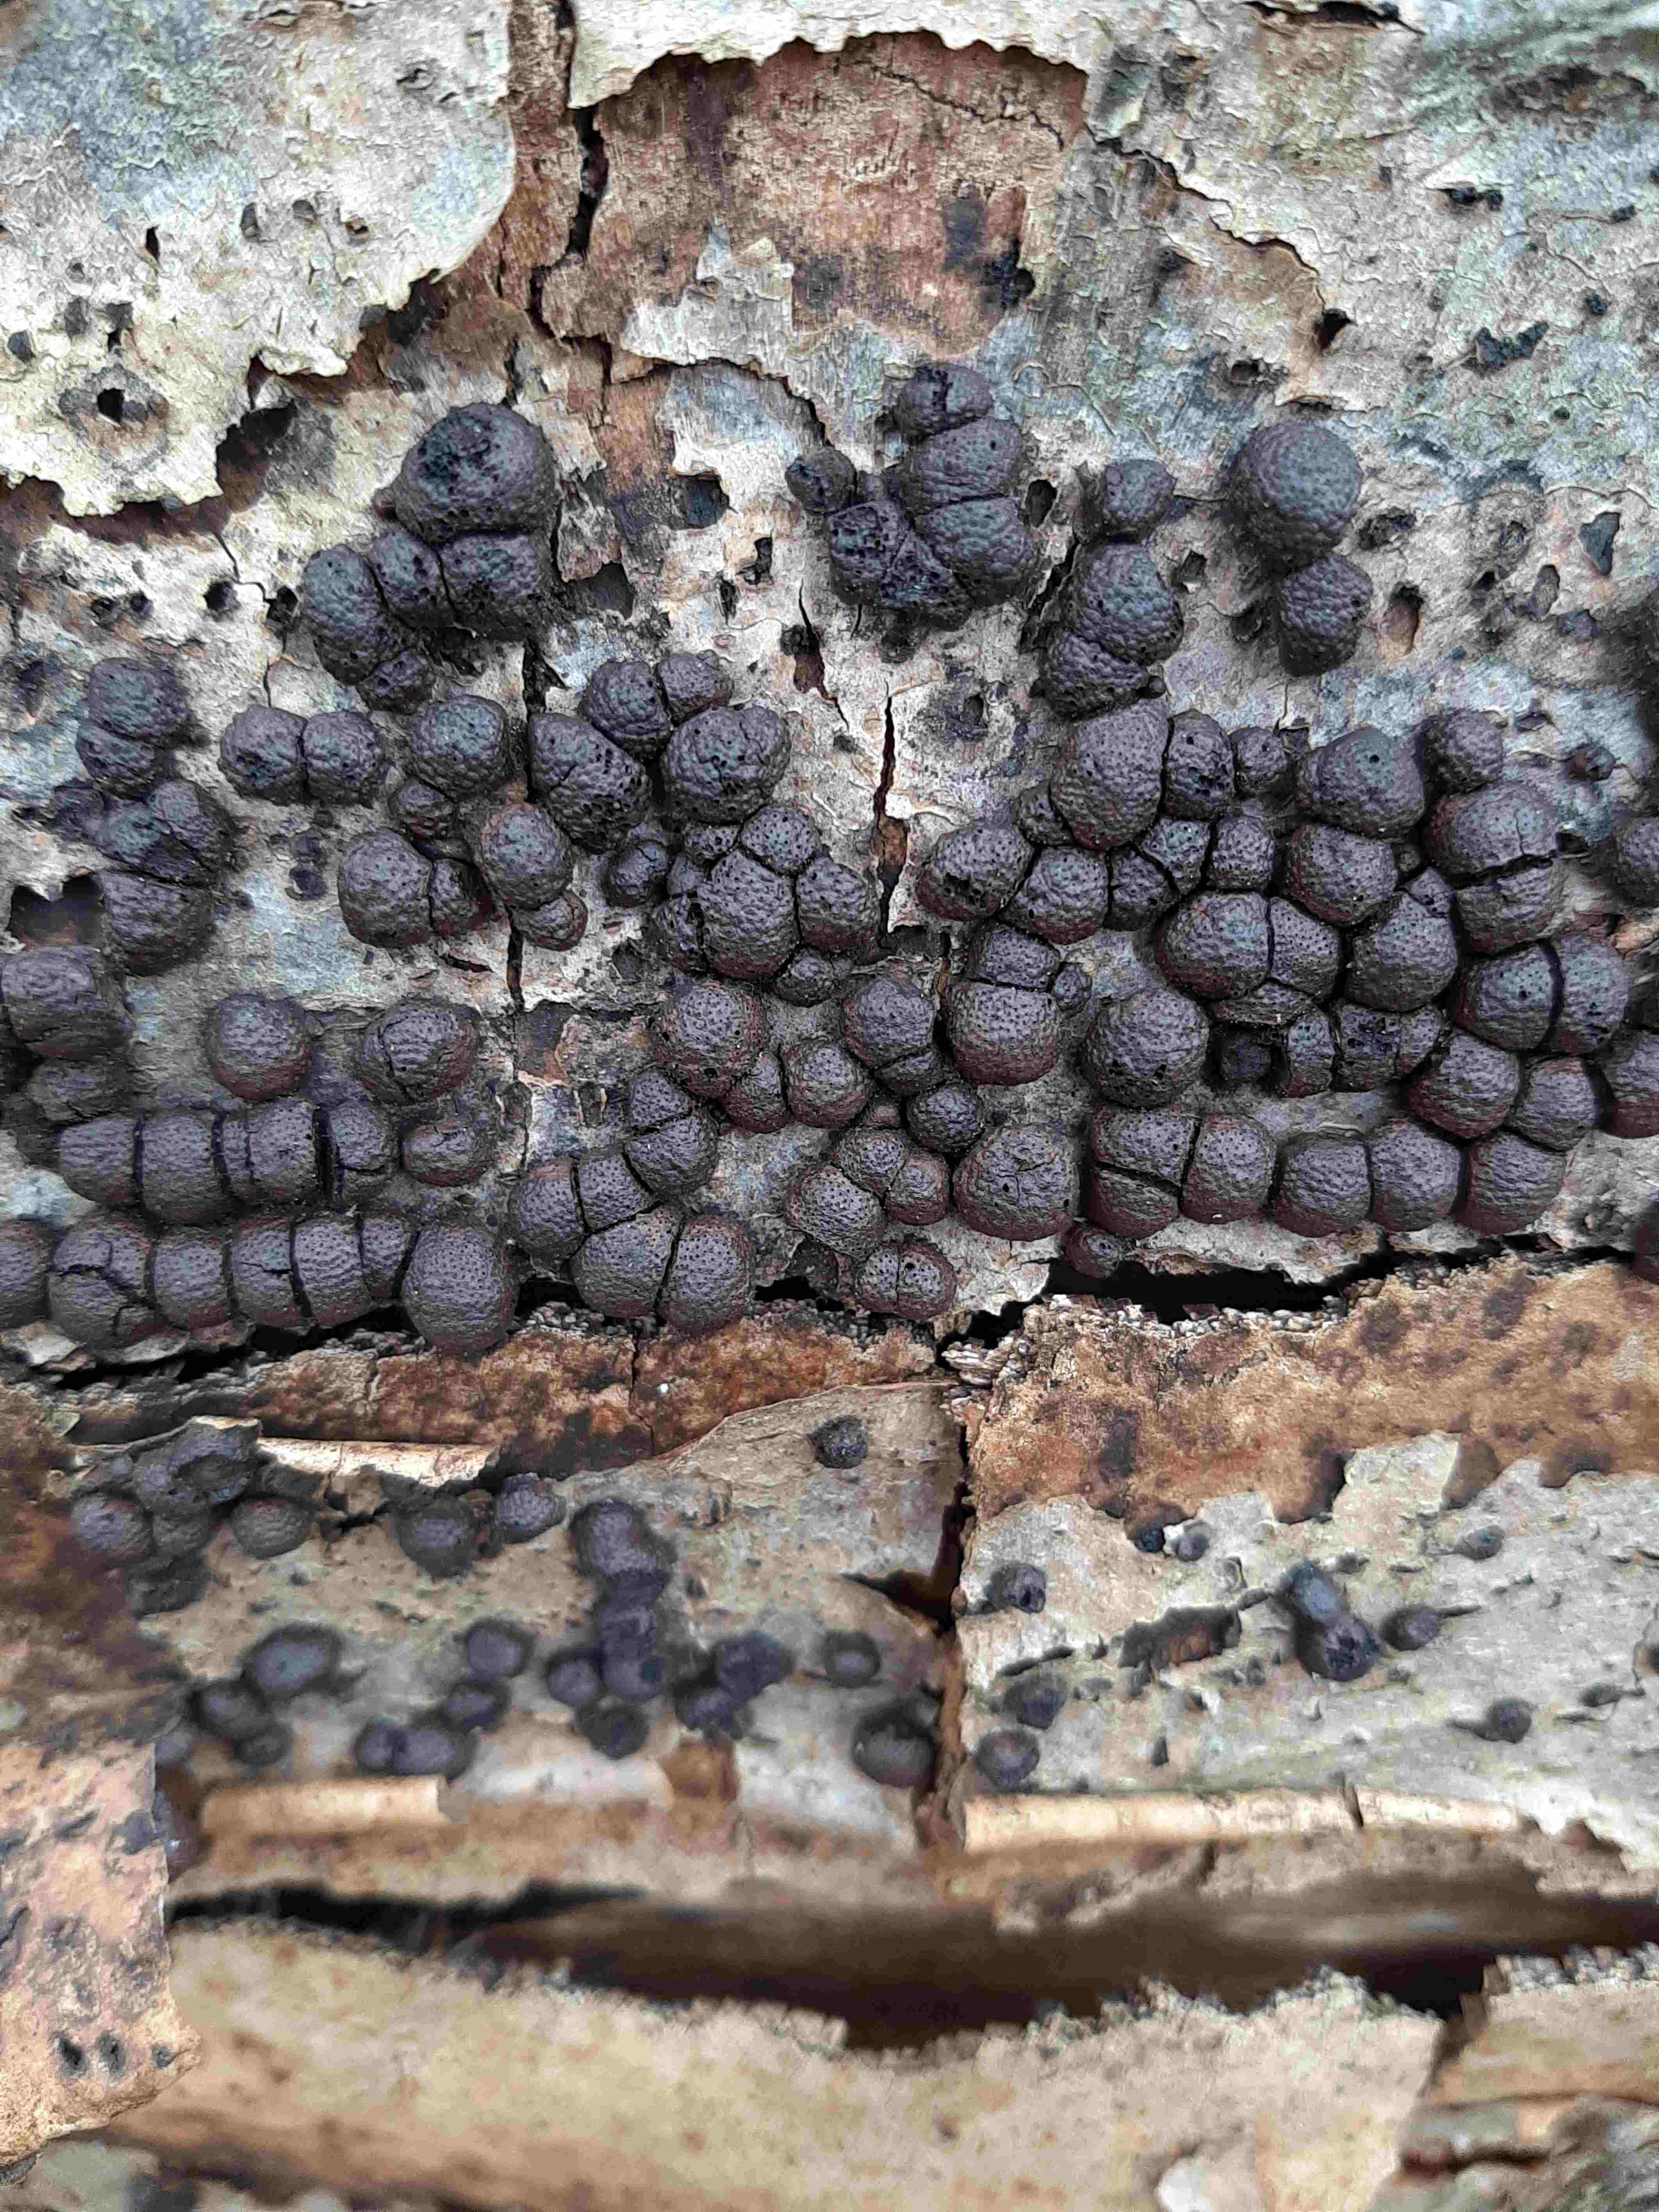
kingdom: Fungi
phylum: Ascomycota
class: Sordariomycetes
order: Xylariales
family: Hypoxylaceae
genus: Hypoxylon
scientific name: Hypoxylon fragiforme
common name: kuljordbær
